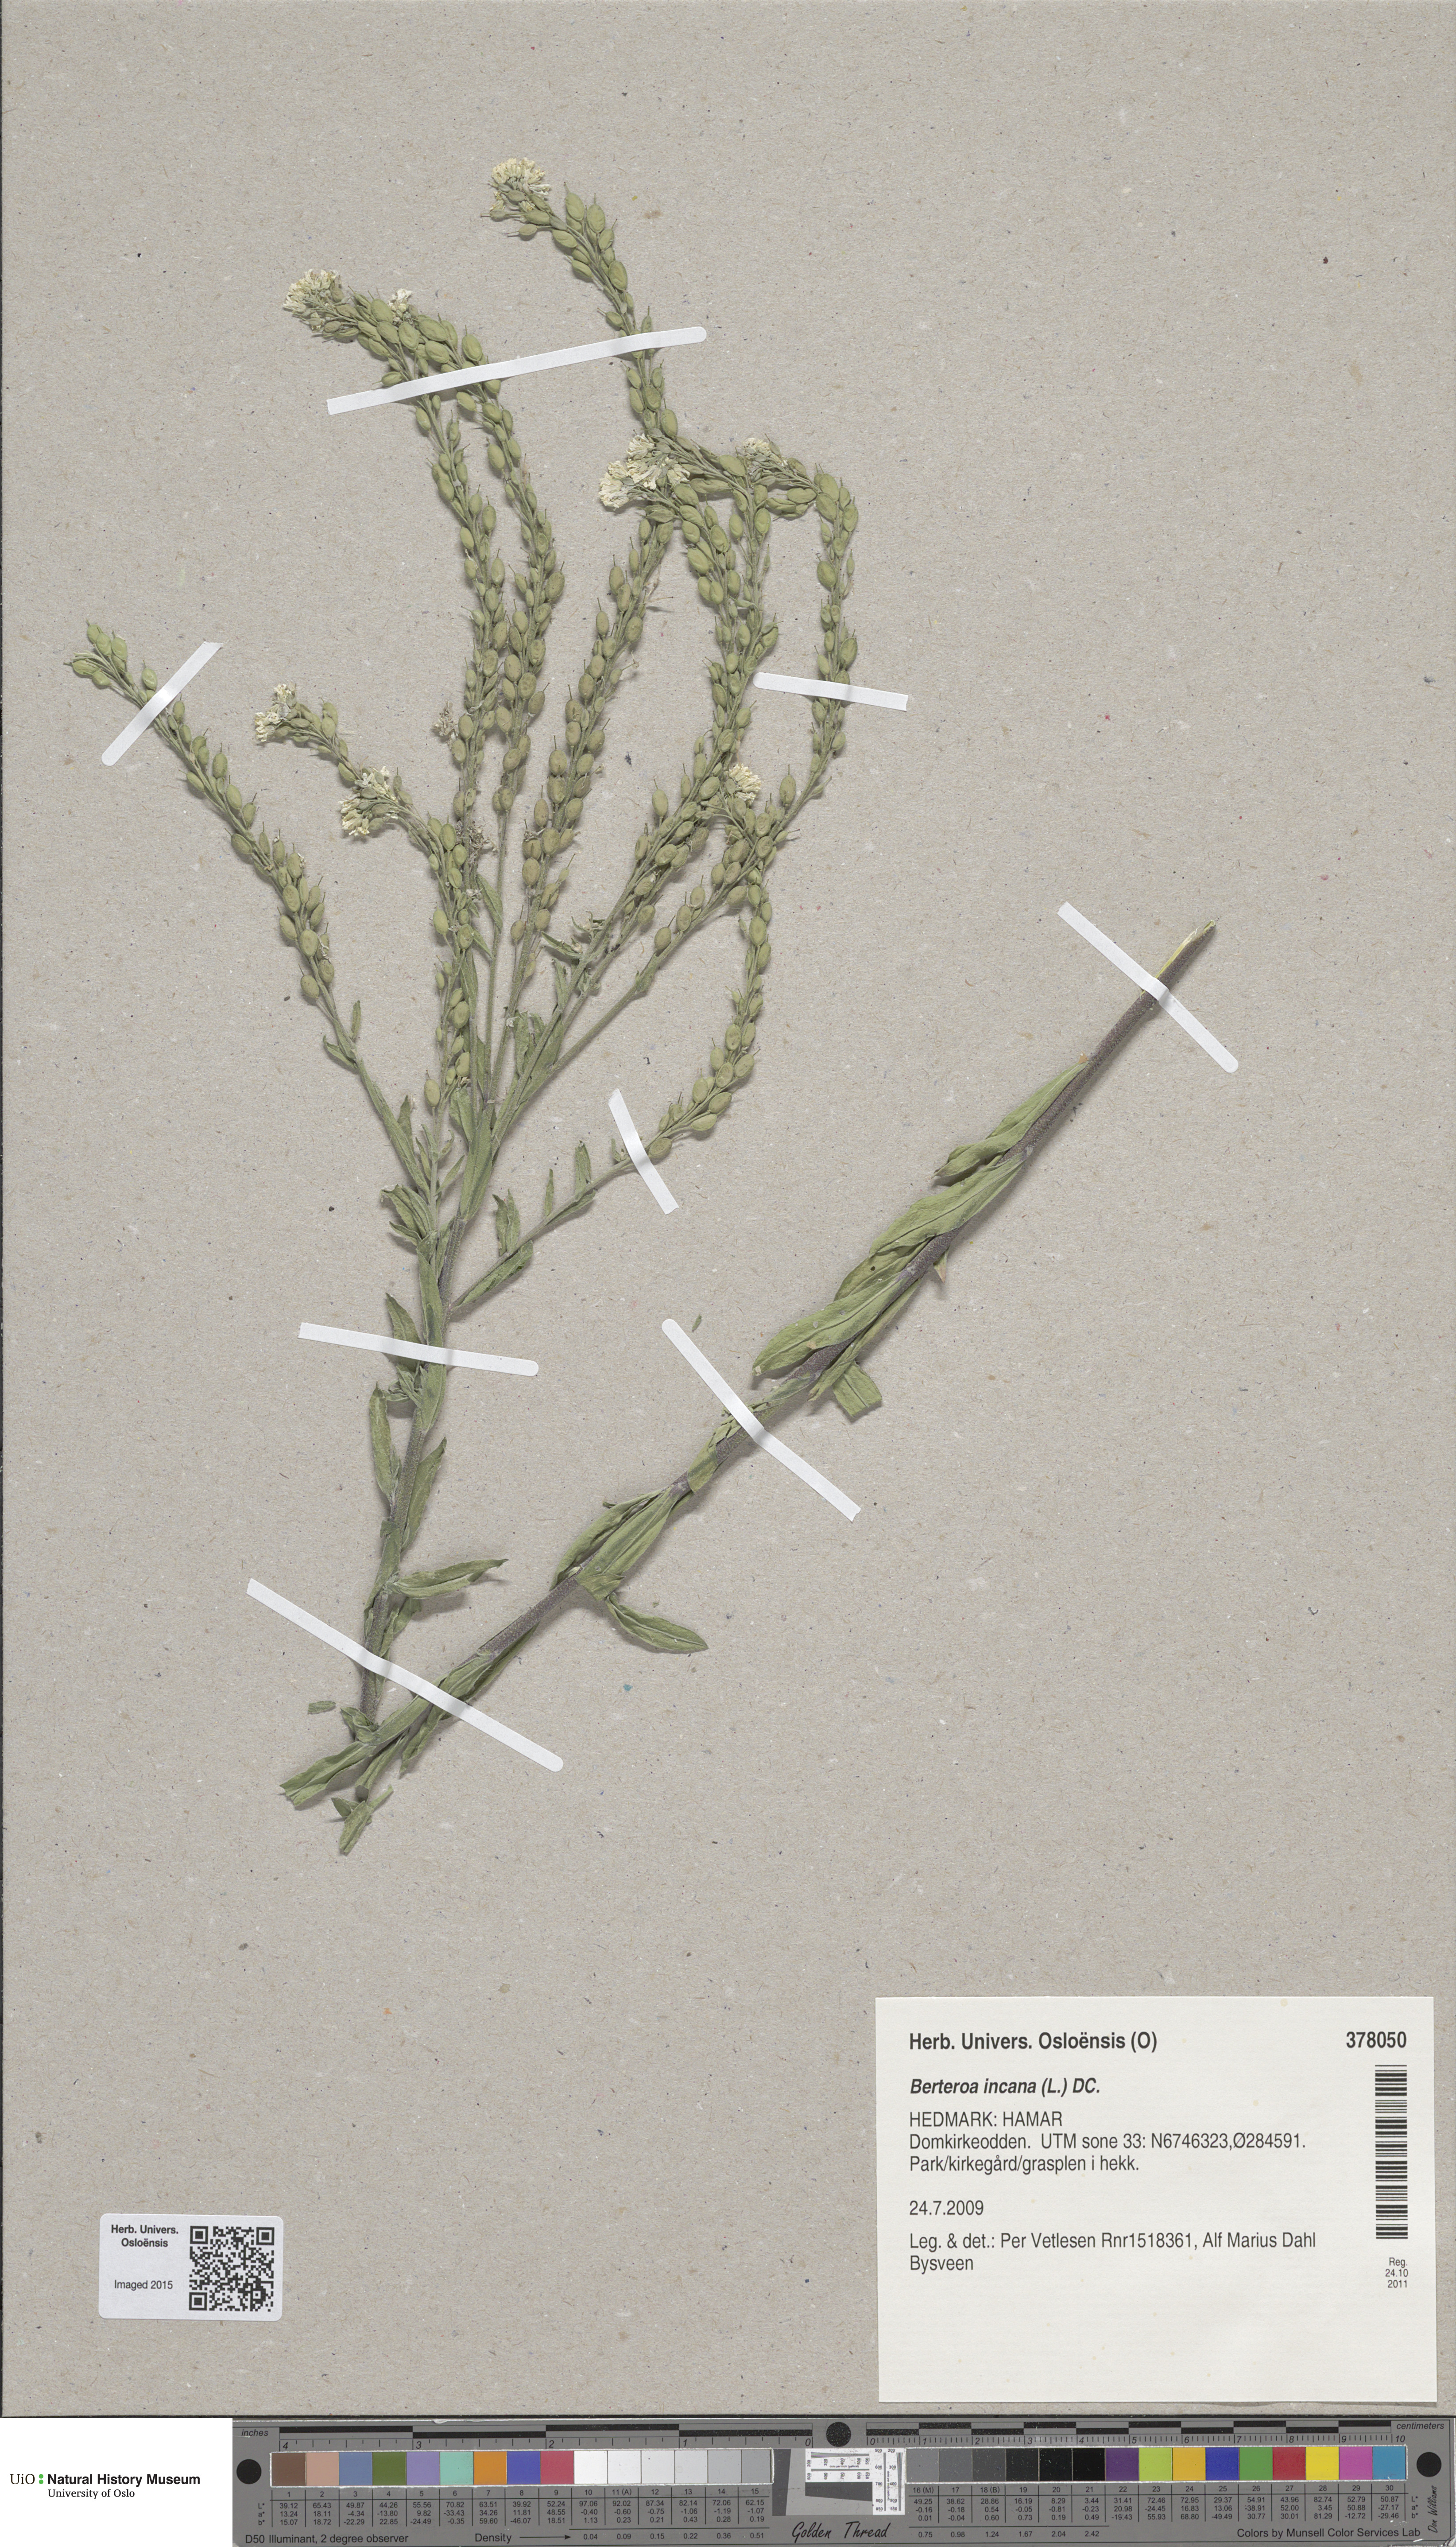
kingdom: Plantae
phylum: Tracheophyta
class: Magnoliopsida
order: Brassicales
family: Brassicaceae
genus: Berteroa
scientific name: Berteroa incana
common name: Hoary alison
